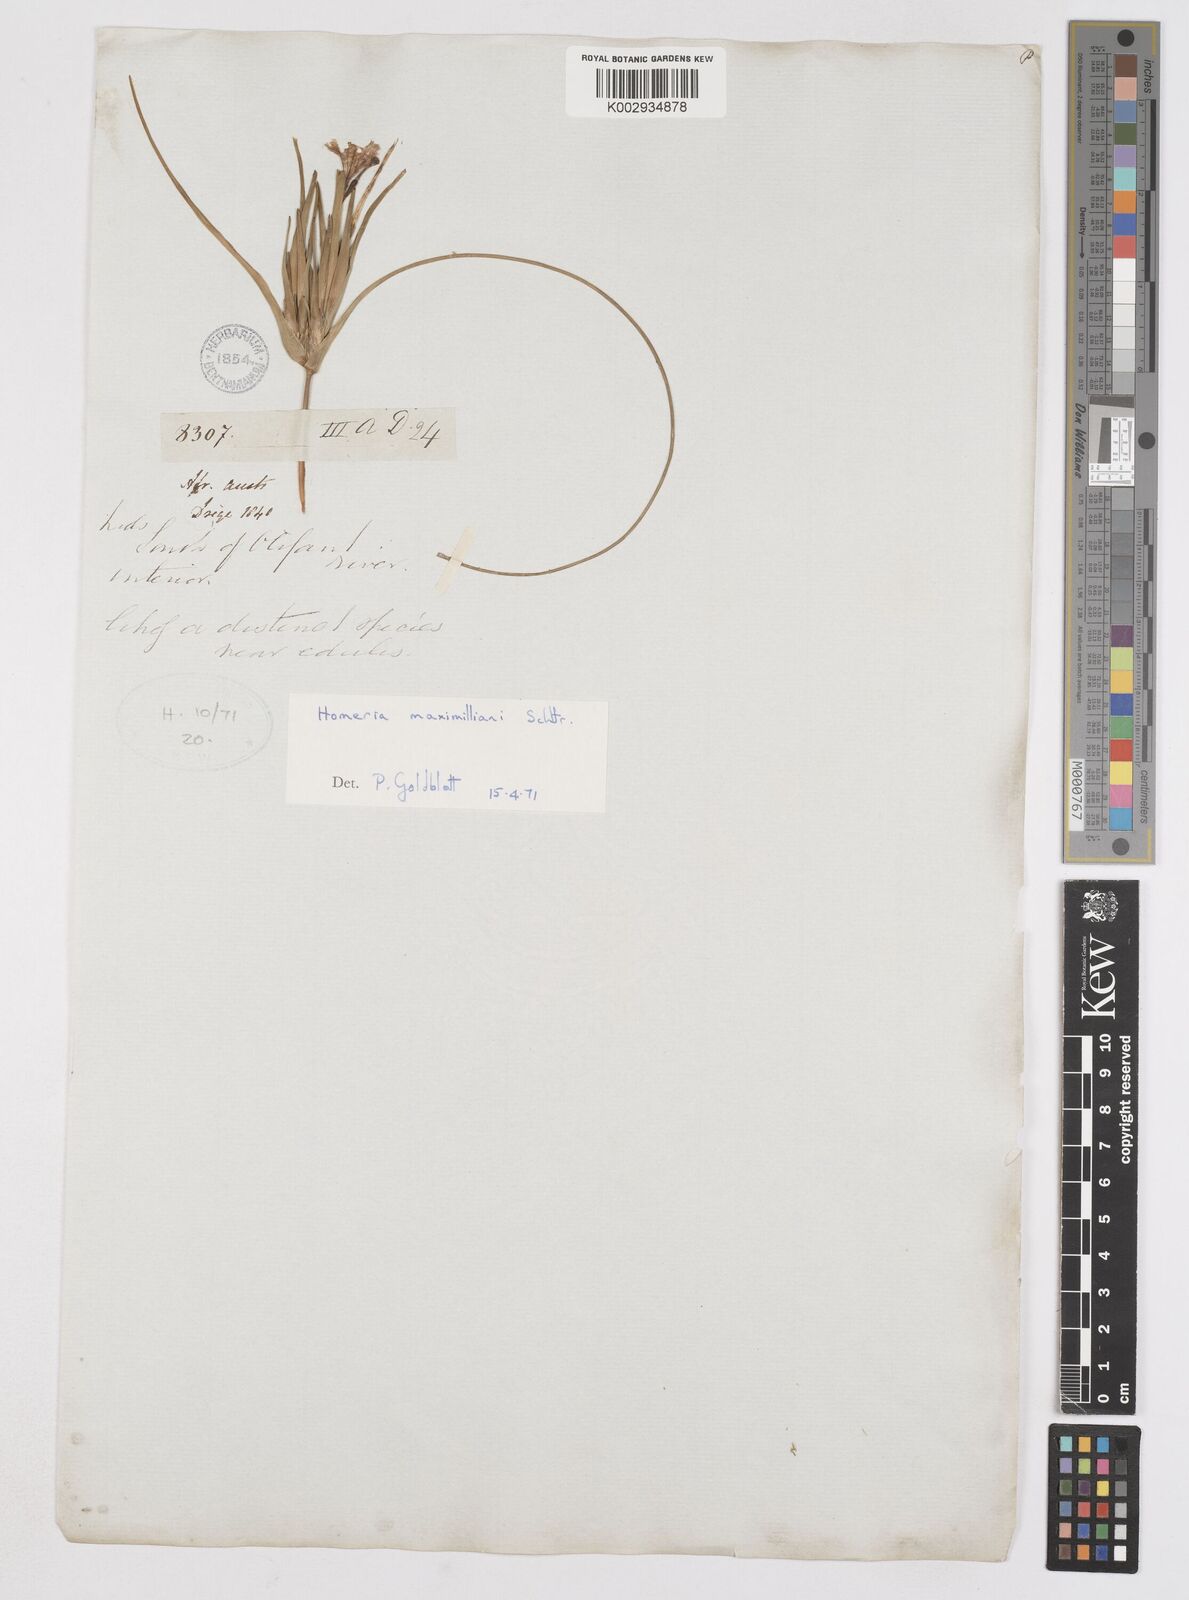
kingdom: Plantae
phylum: Tracheophyta
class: Liliopsida
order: Asparagales
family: Iridaceae
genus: Moraea
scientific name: Moraea maximiliani
